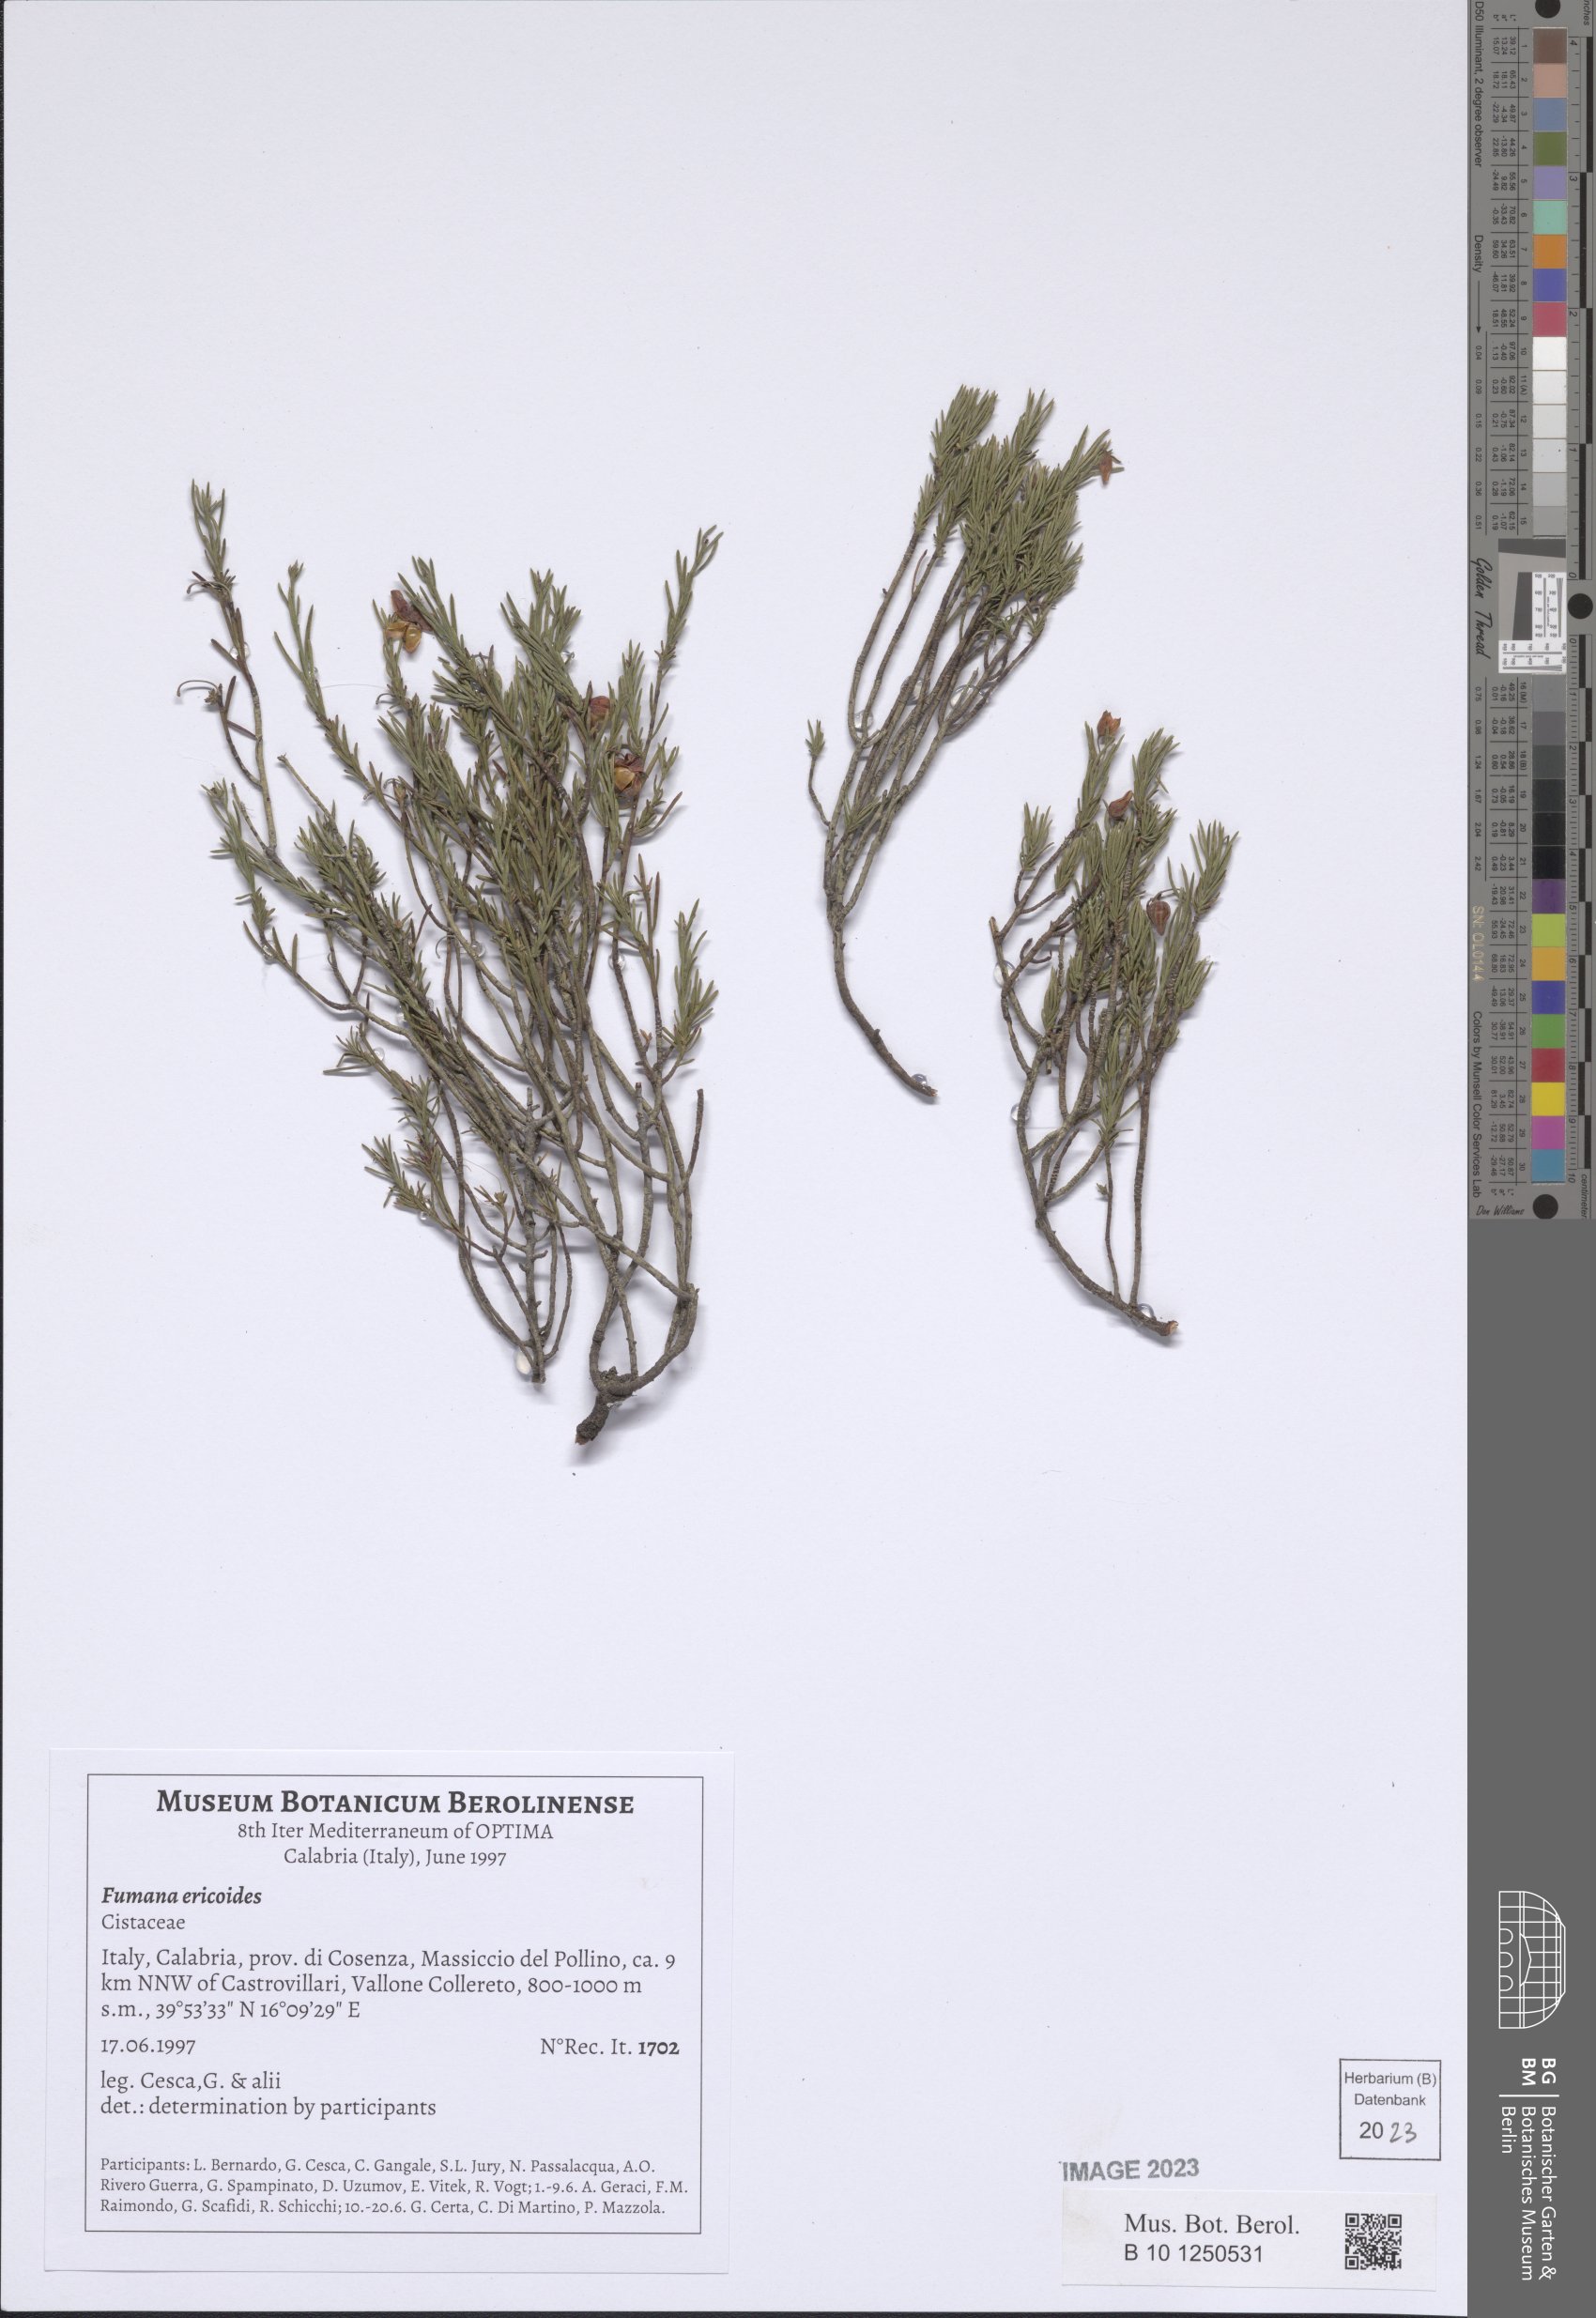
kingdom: Plantae
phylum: Tracheophyta
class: Magnoliopsida
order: Malvales
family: Cistaceae
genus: Fumana
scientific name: Fumana ericoides
